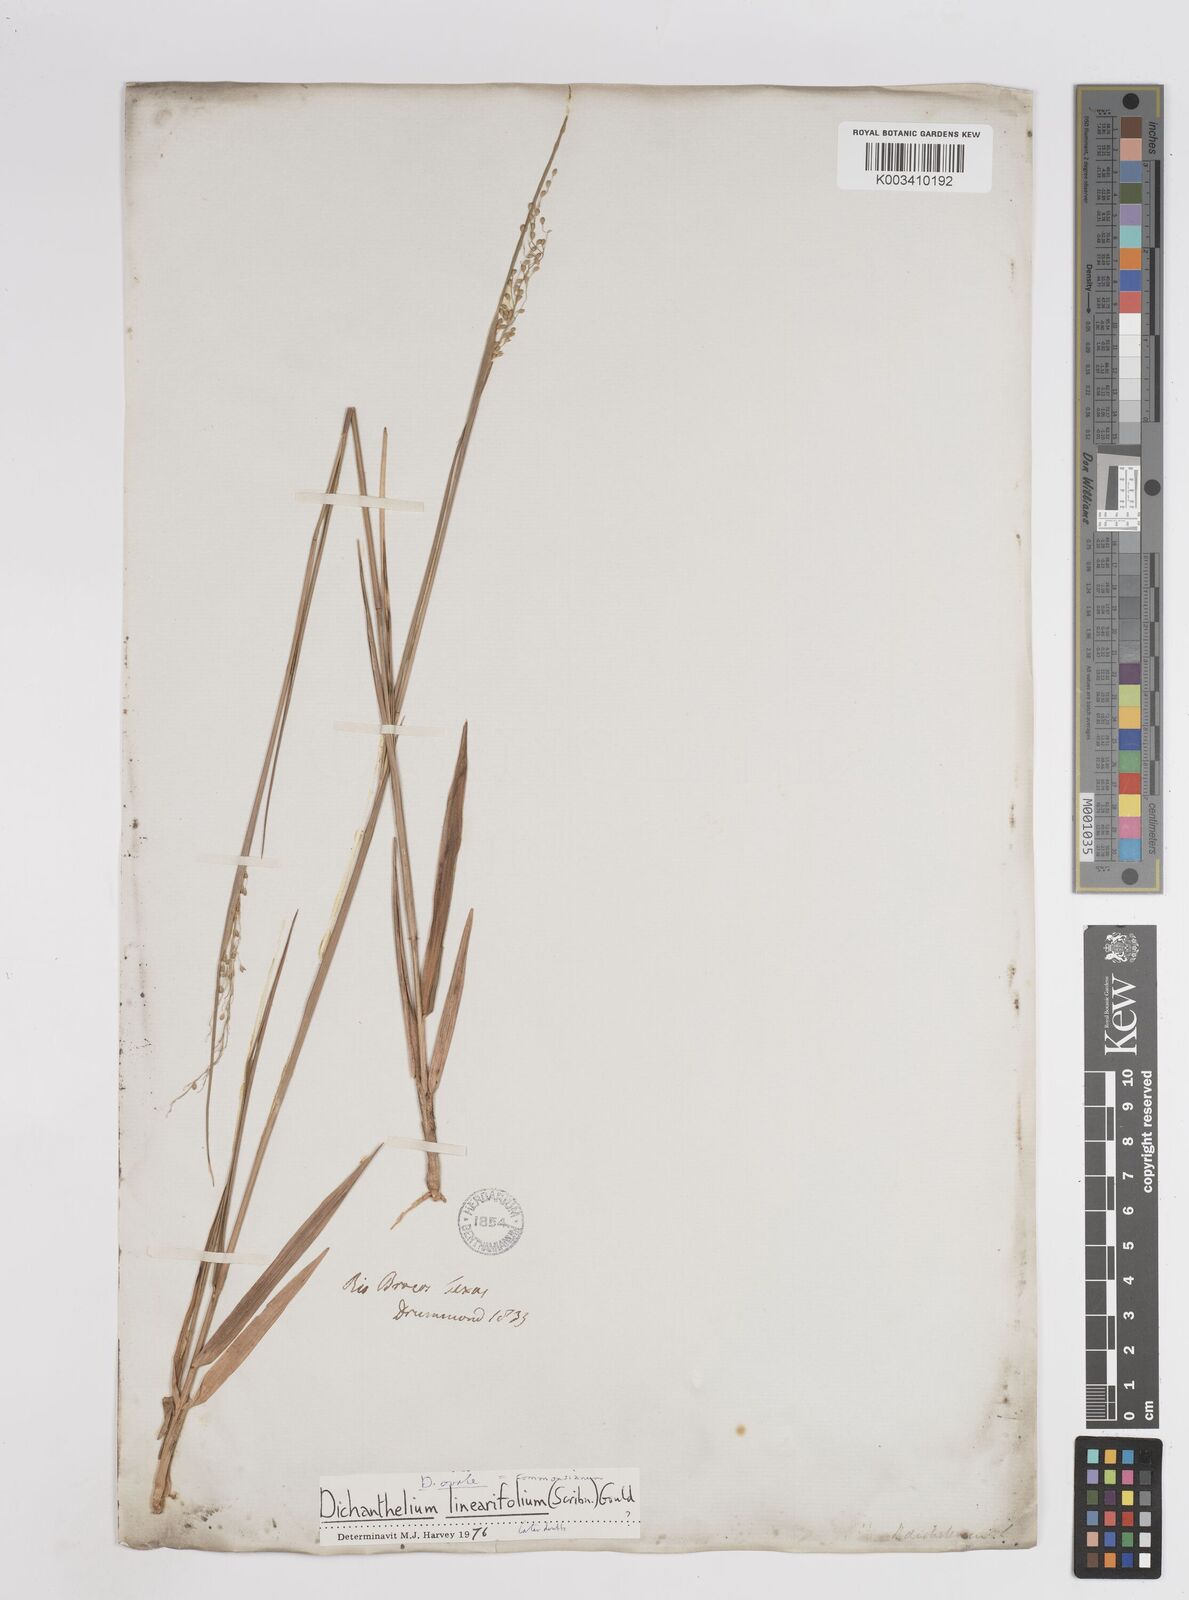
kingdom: Plantae
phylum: Tracheophyta
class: Liliopsida
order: Poales
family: Poaceae
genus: Dichanthelium
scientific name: Dichanthelium linearifolium
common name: Linear-leaved panicgrass
